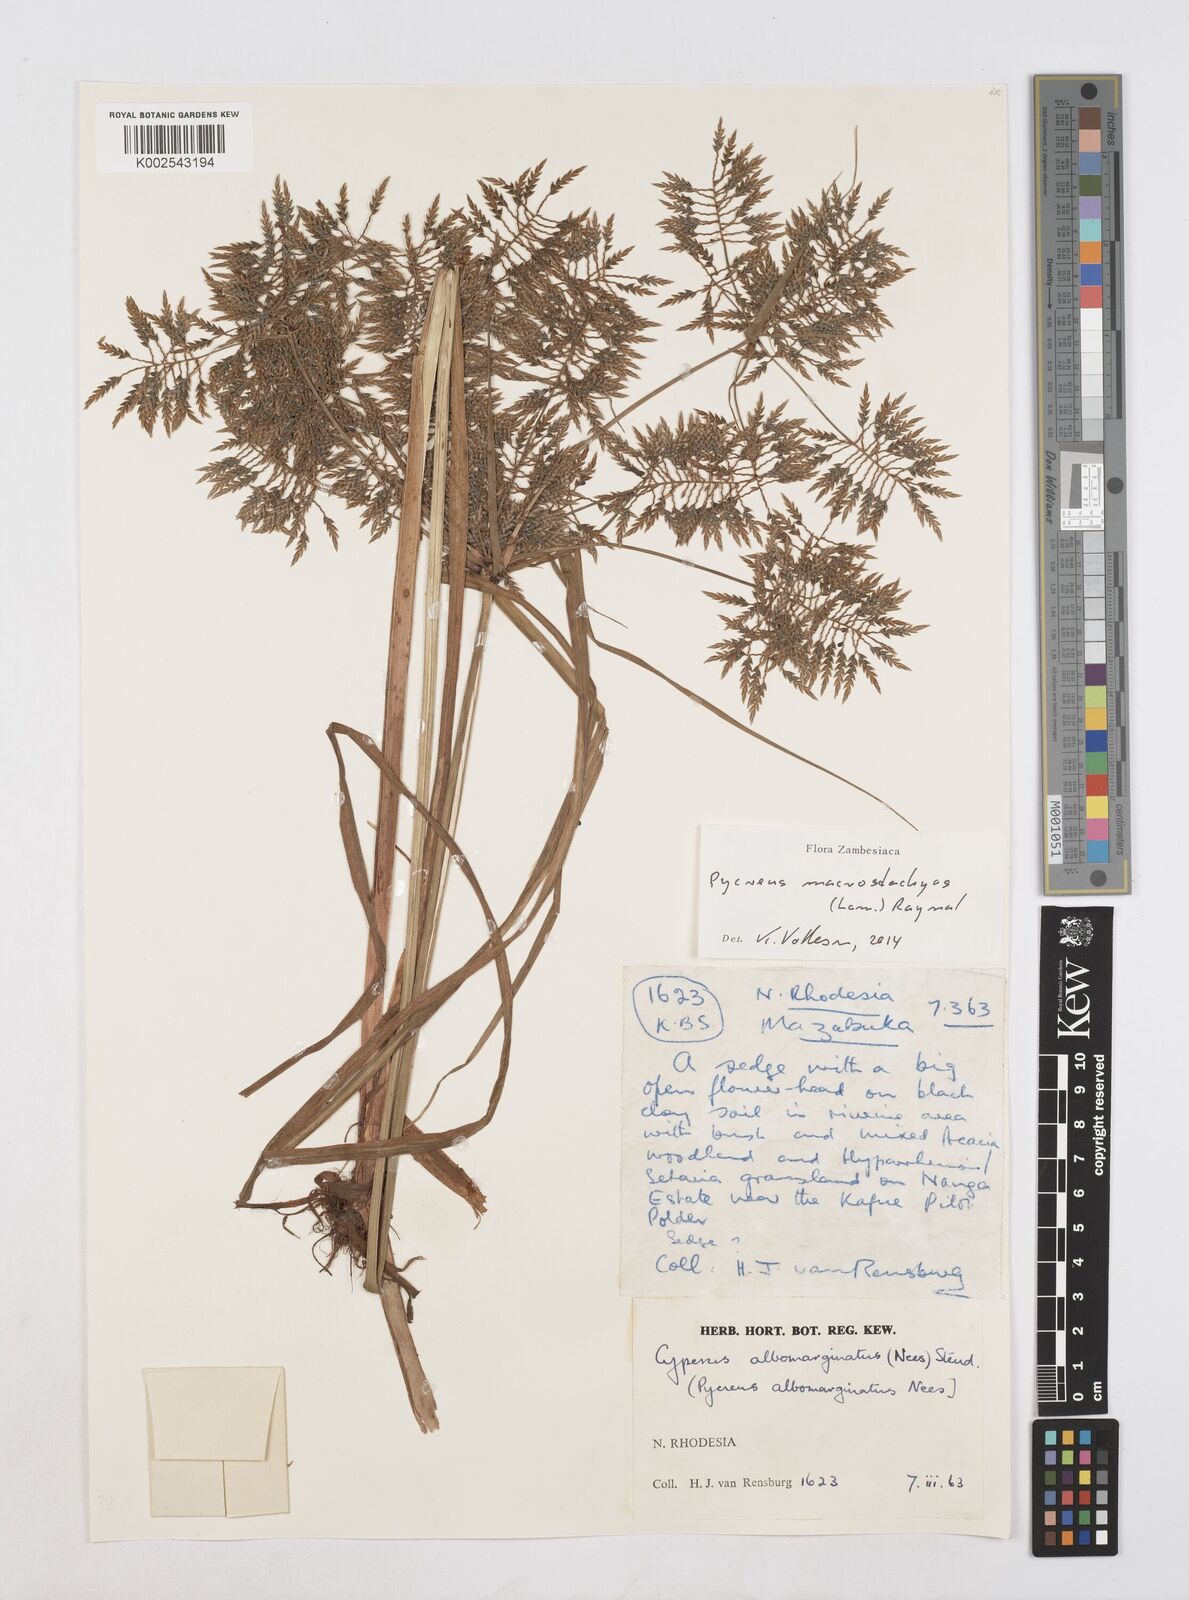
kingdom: Plantae
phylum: Tracheophyta
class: Liliopsida
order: Poales
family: Cyperaceae
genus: Cyperus
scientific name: Cyperus macrostachyos
